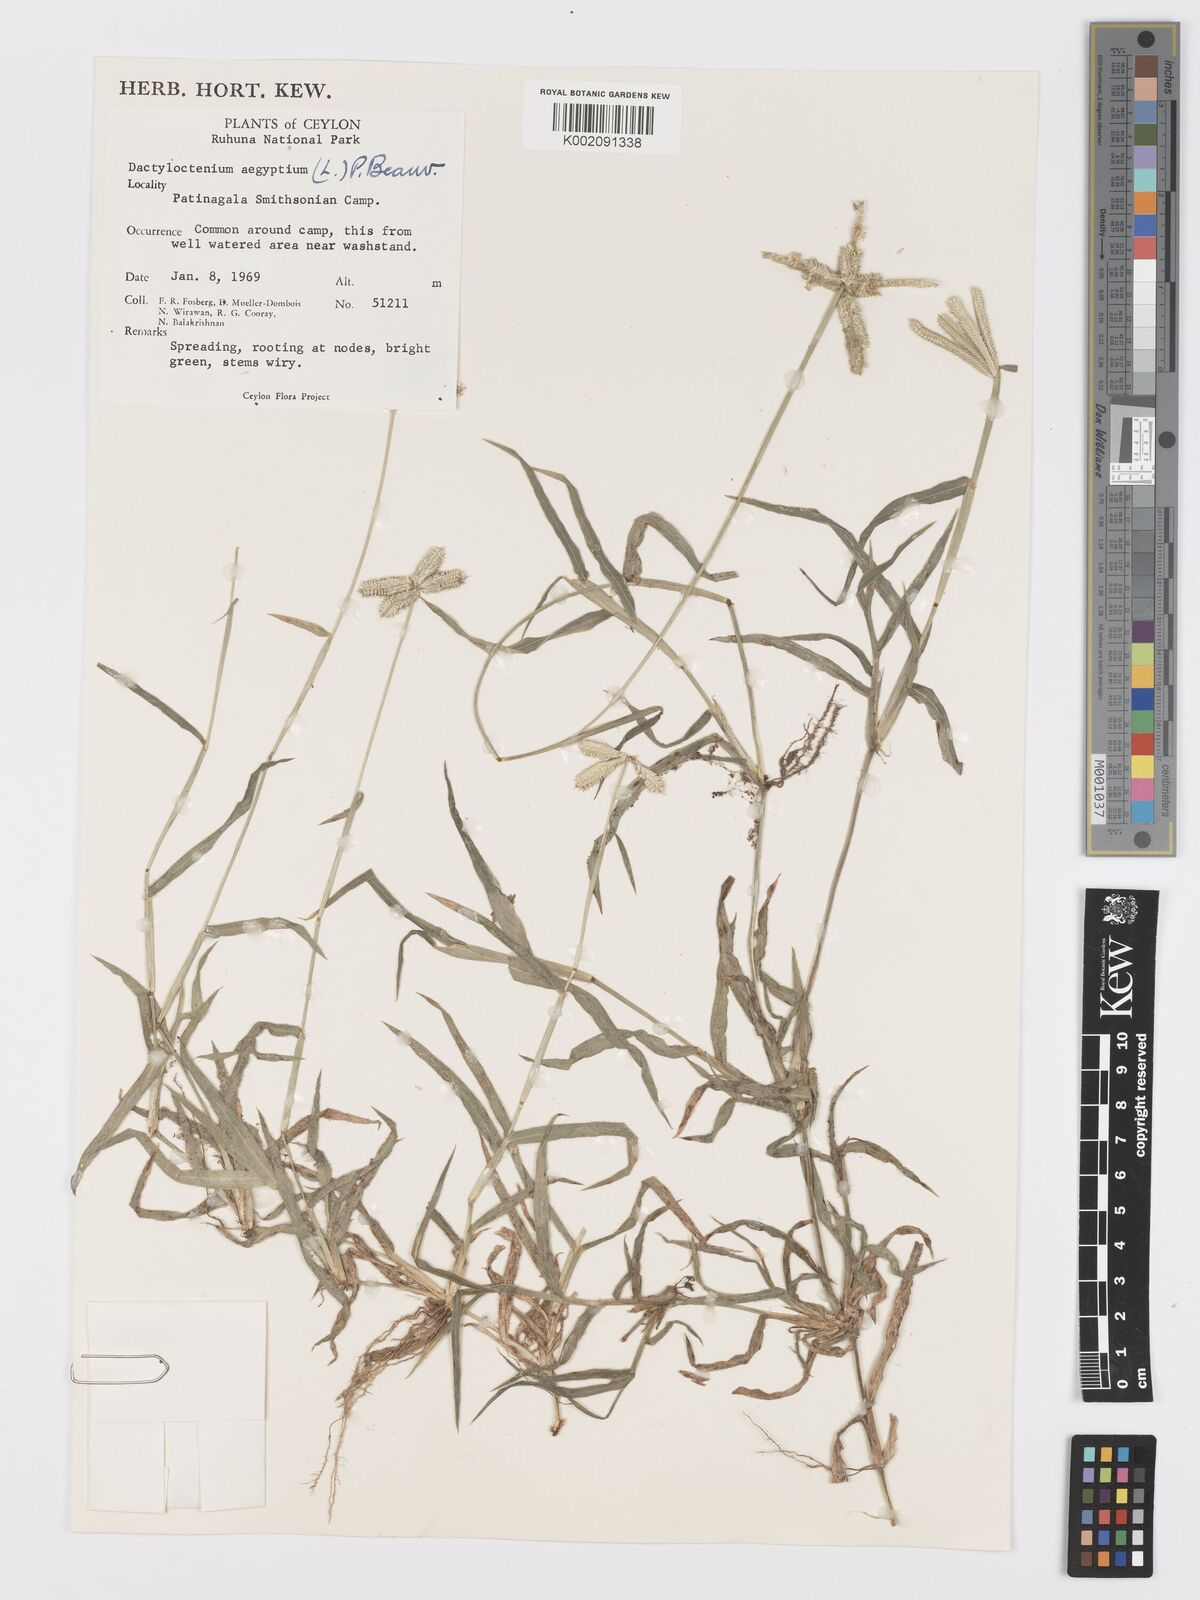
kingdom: Plantae
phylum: Tracheophyta
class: Liliopsida
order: Poales
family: Poaceae
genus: Dactyloctenium
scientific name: Dactyloctenium aegyptium
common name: Egyptian grass
